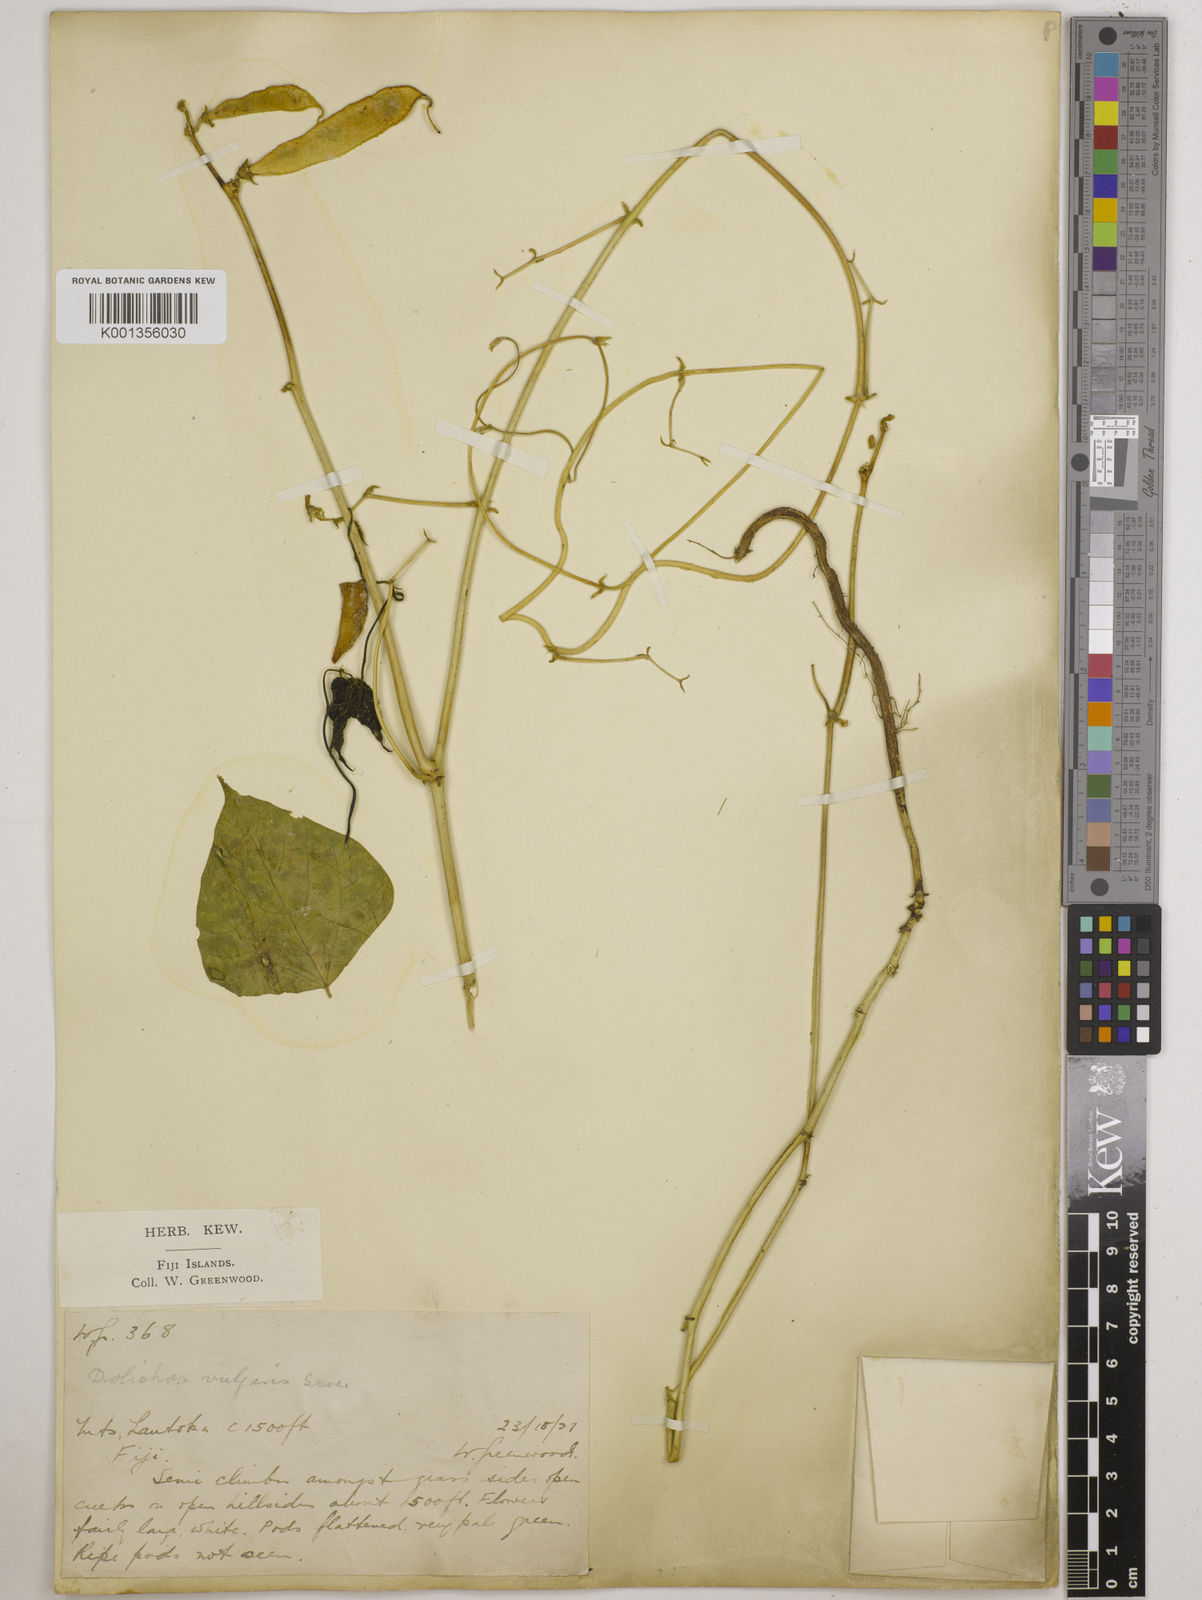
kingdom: Plantae
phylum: Tracheophyta
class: Magnoliopsida
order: Fabales
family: Fabaceae
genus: Lablab
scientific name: Lablab purpureus
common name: Lablab-bean
